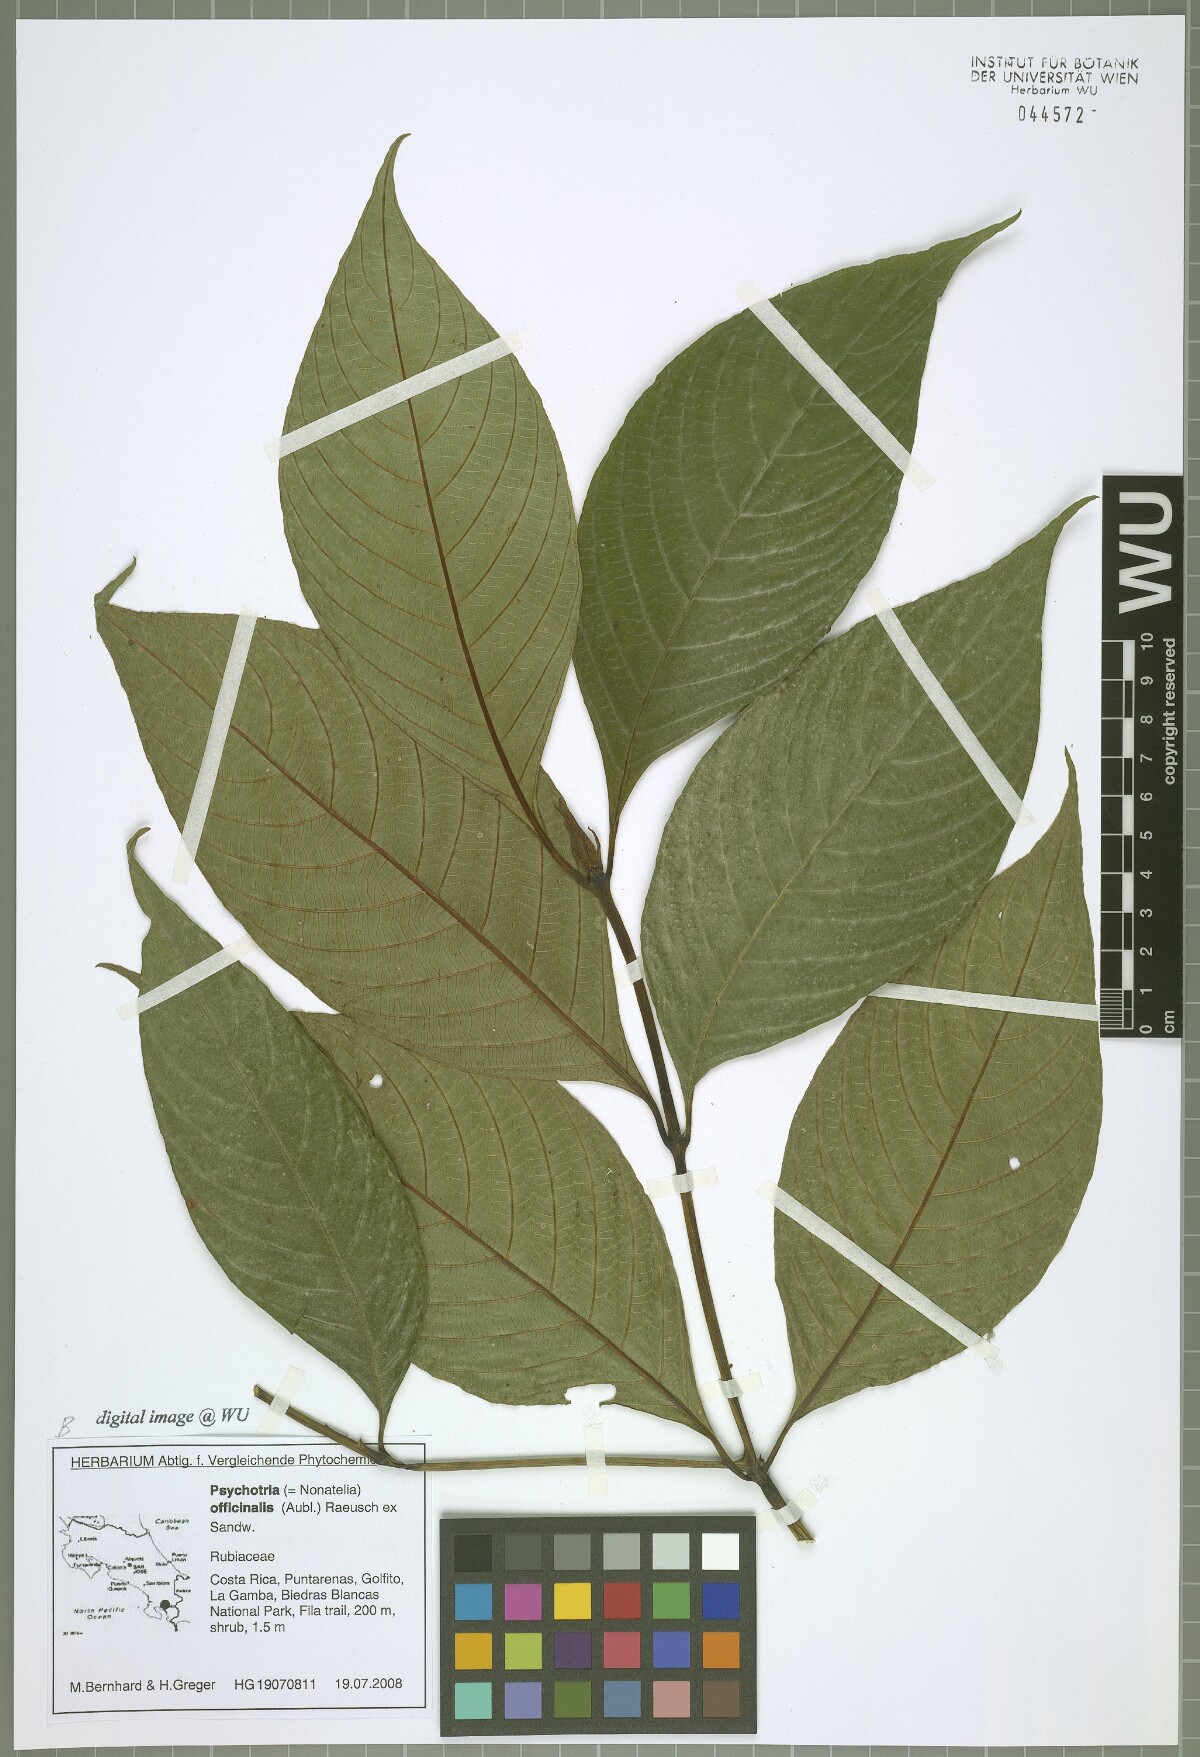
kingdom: Plantae
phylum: Tracheophyta
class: Magnoliopsida
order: Gentianales
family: Rubiaceae
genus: Palicourea
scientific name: Palicourea winkleri
